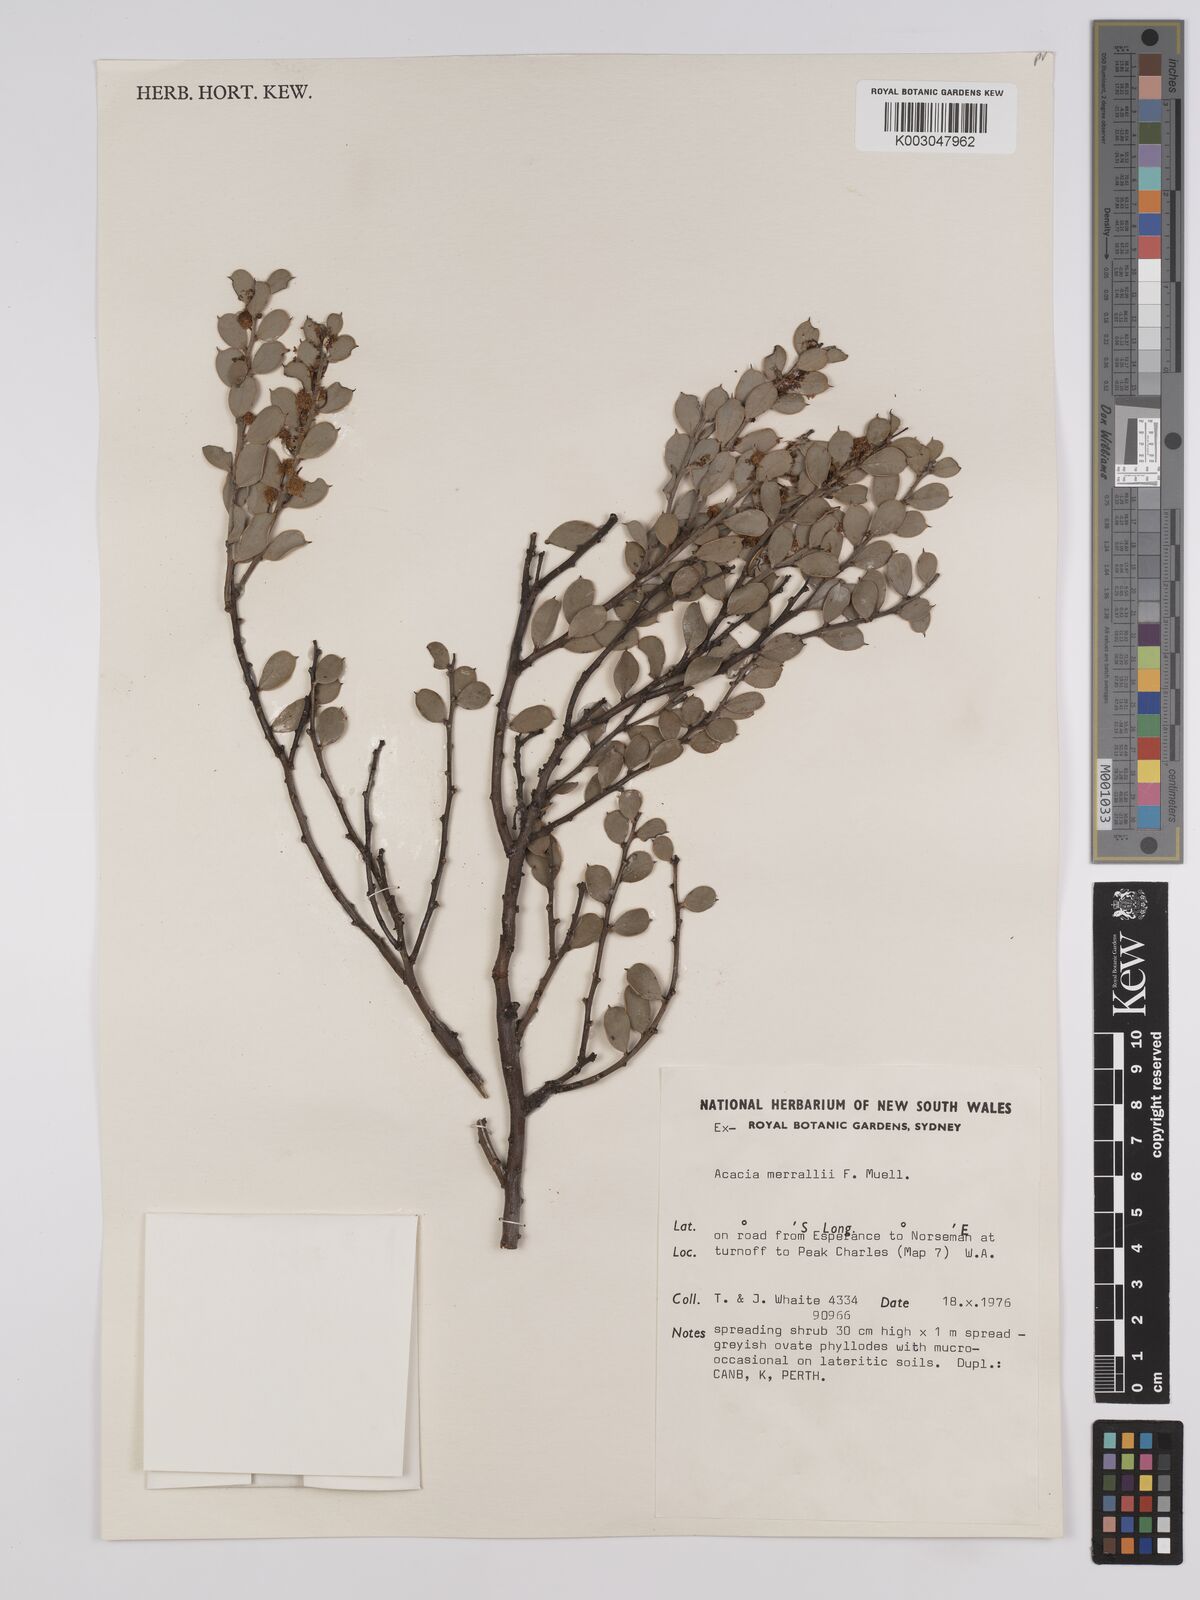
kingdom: Plantae
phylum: Tracheophyta
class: Magnoliopsida
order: Fabales
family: Fabaceae
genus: Acacia
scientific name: Acacia merrallii
